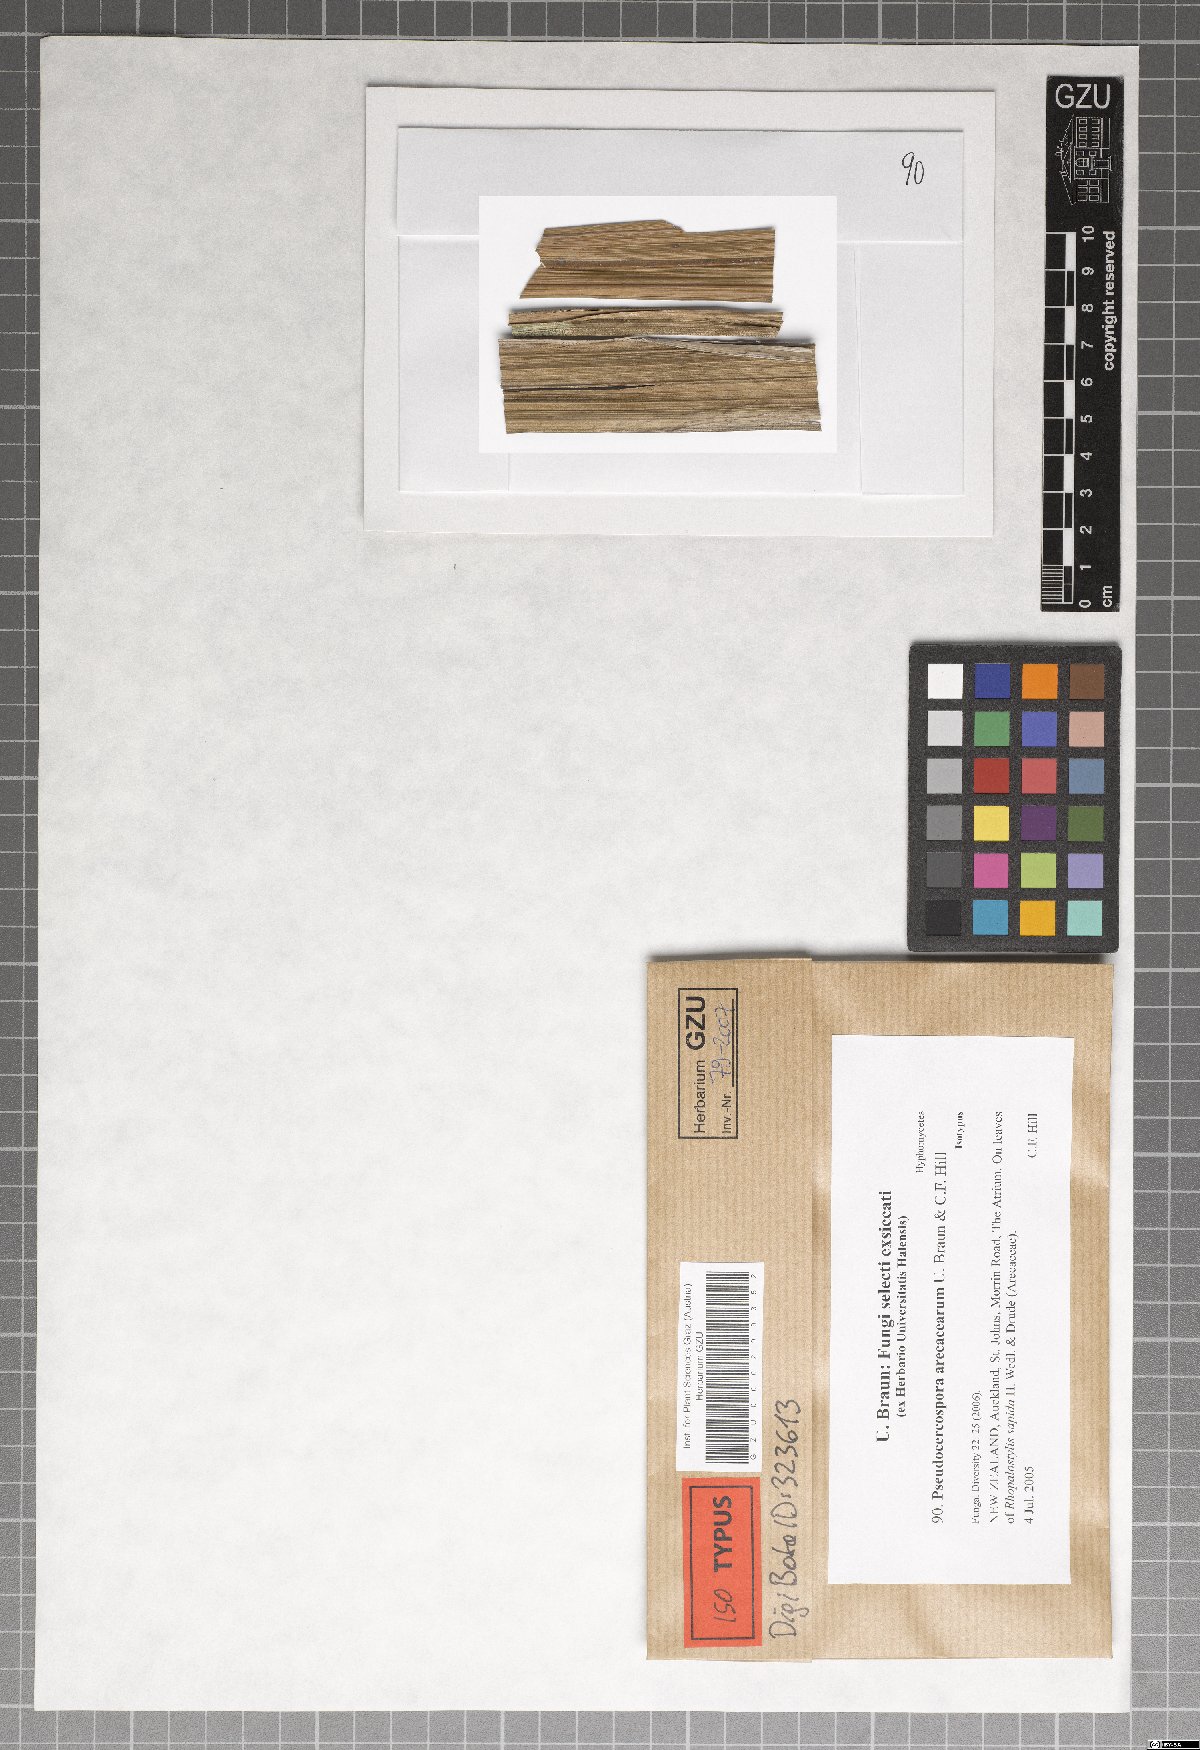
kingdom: Fungi
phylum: Ascomycota
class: Dothideomycetes
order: Mycosphaerellales
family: Mycosphaerellaceae
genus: Pseudocercospora
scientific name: Pseudocercospora arecacearum
